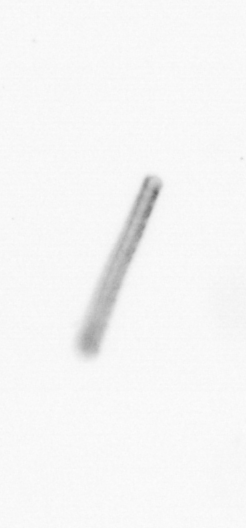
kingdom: Chromista
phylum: Ochrophyta
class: Bacillariophyceae
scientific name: Bacillariophyceae
